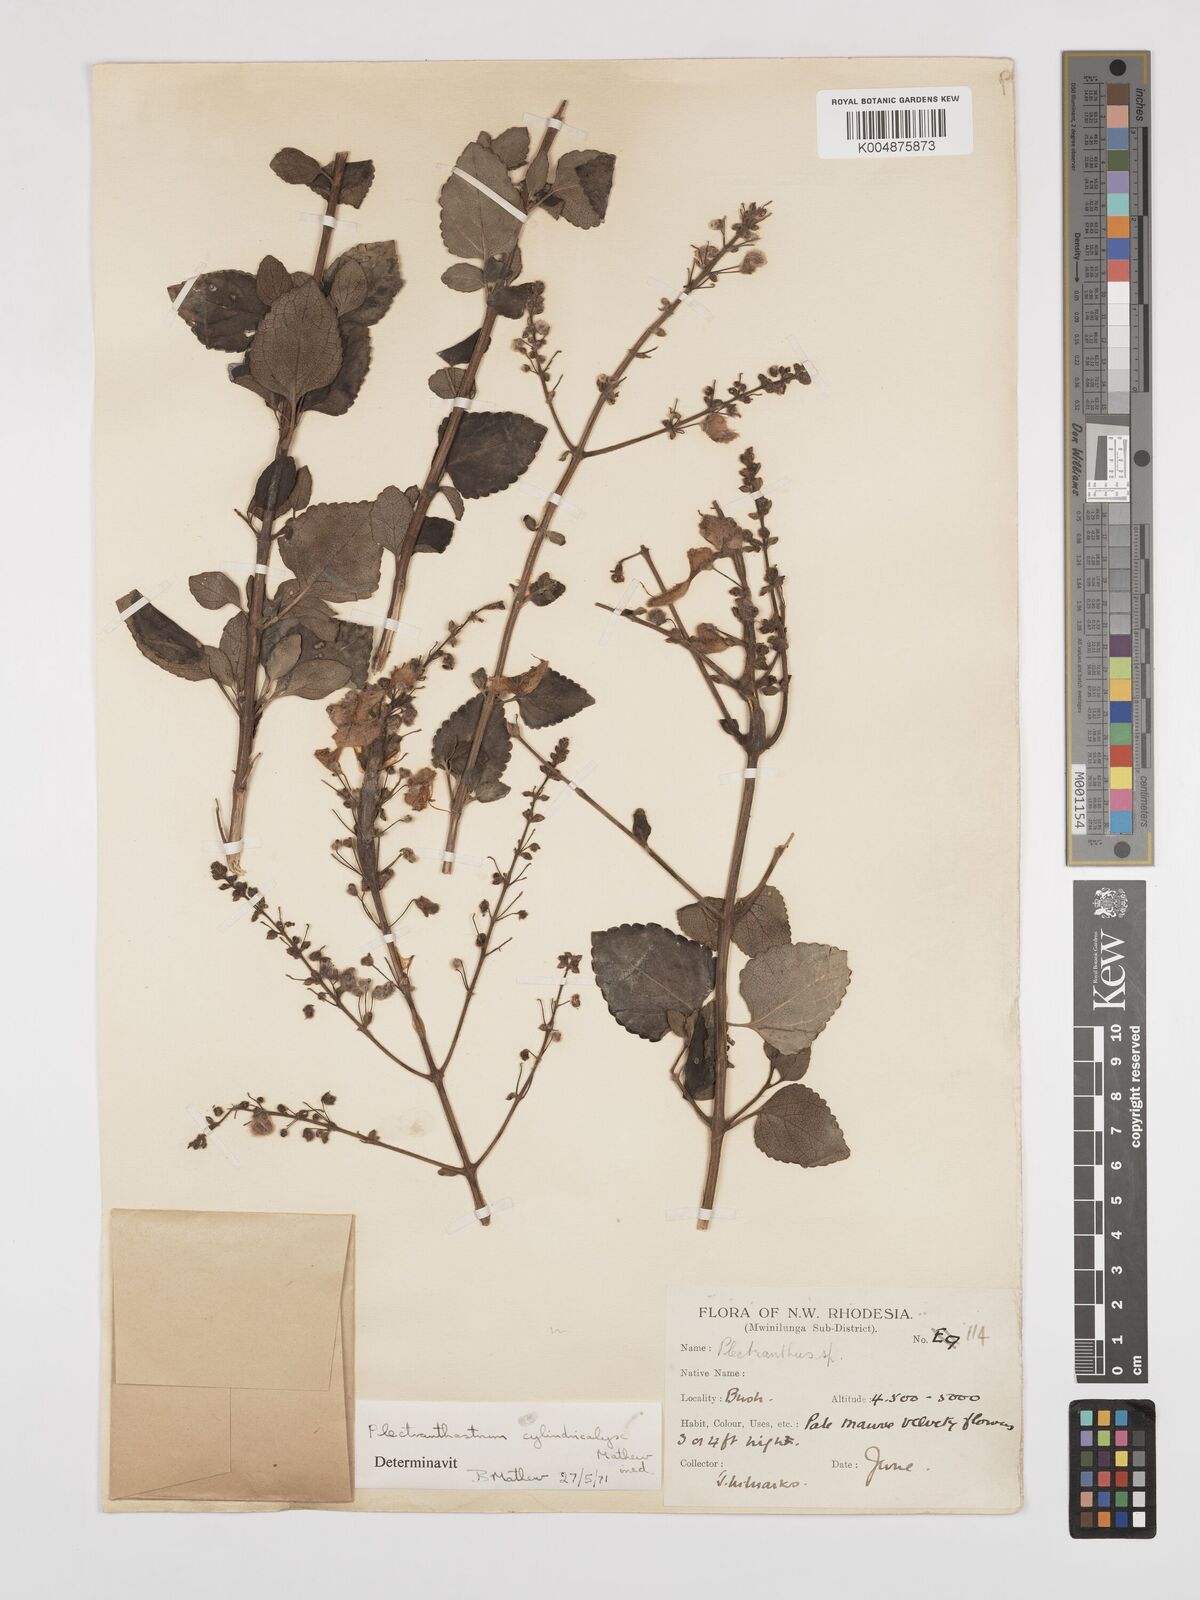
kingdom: Plantae
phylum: Tracheophyta
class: Magnoliopsida
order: Lamiales
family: Lamiaceae
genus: Alvesia
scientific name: Alvesia cylindricalyx
